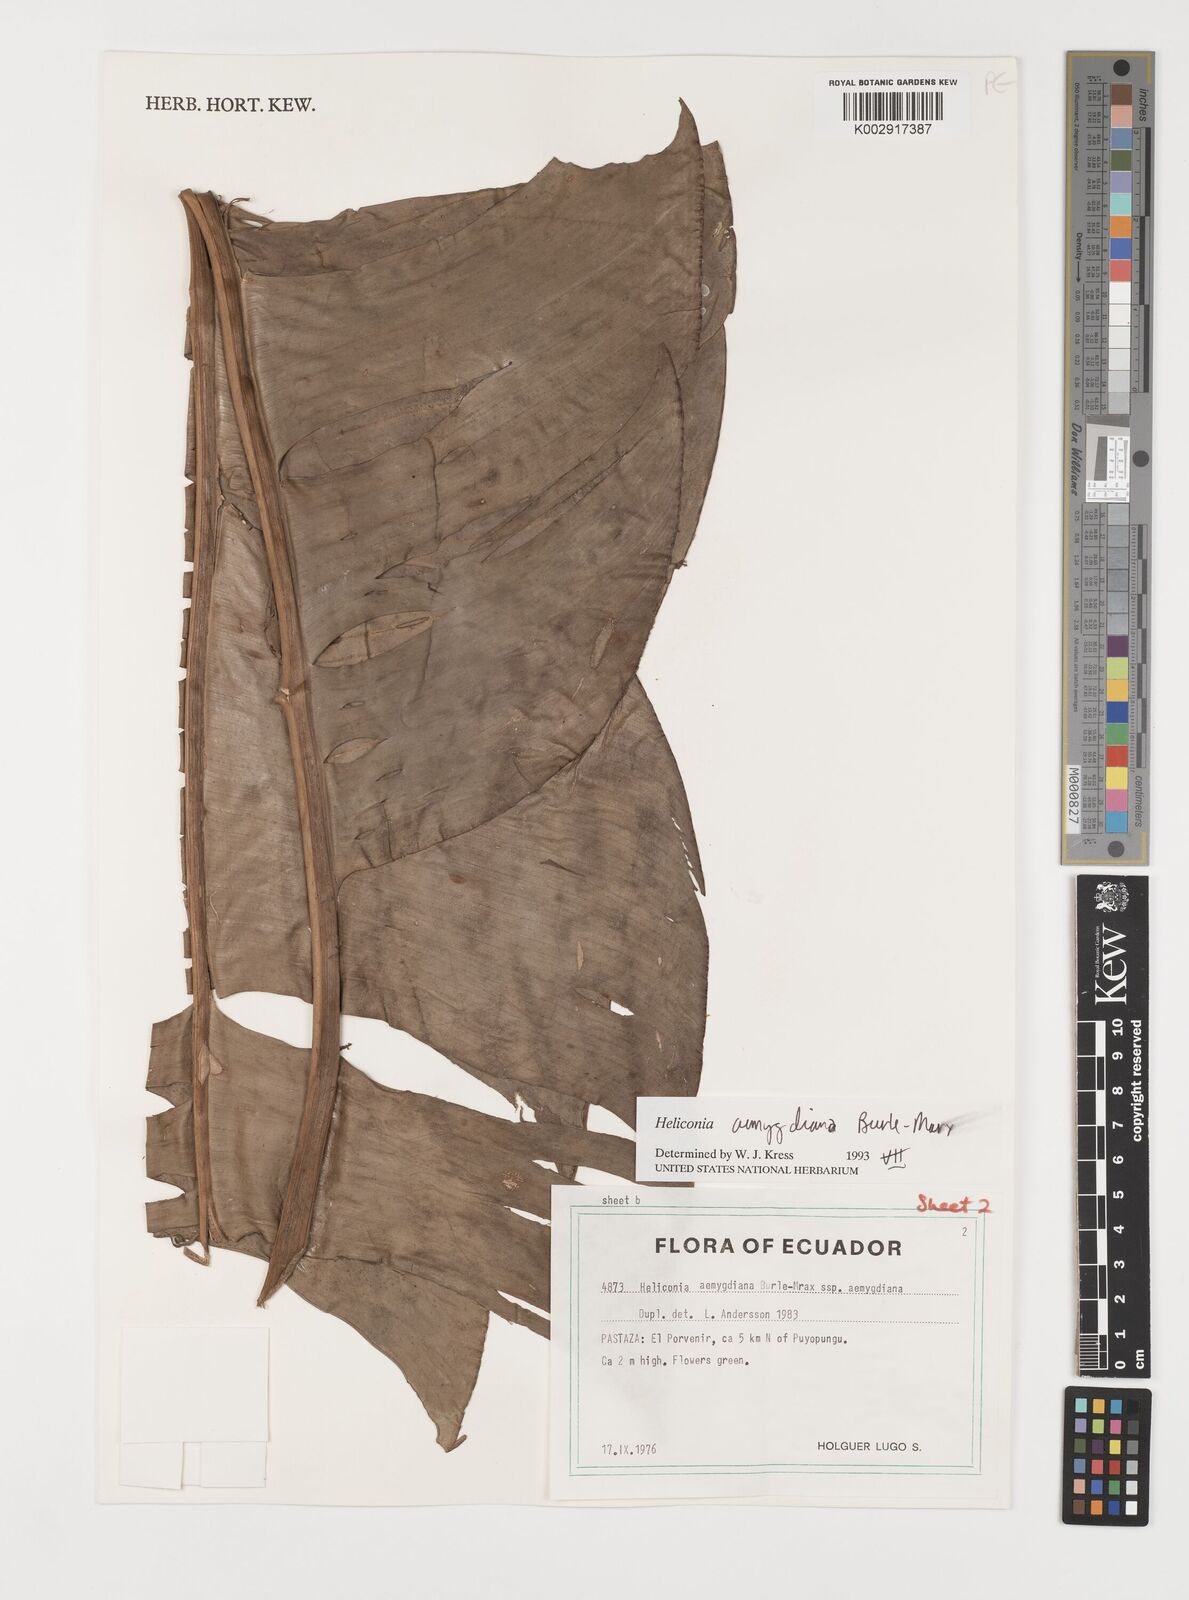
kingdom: Plantae
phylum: Tracheophyta
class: Liliopsida
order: Zingiberales
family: Heliconiaceae
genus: Heliconia
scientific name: Heliconia aemygdiana
